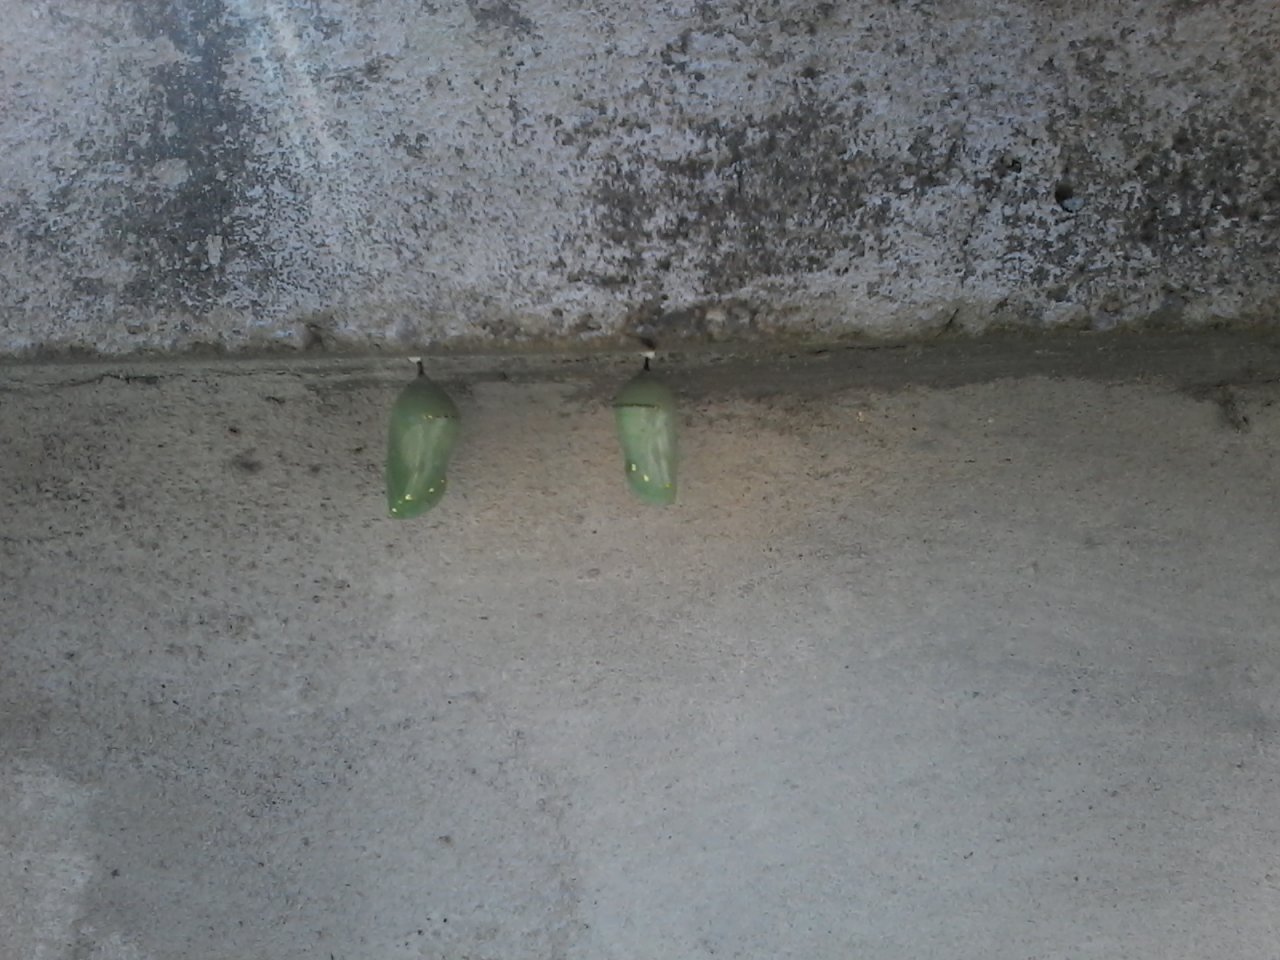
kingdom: Animalia
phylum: Arthropoda
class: Insecta
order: Lepidoptera
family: Nymphalidae
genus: Danaus
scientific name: Danaus plexippus
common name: Monarch
